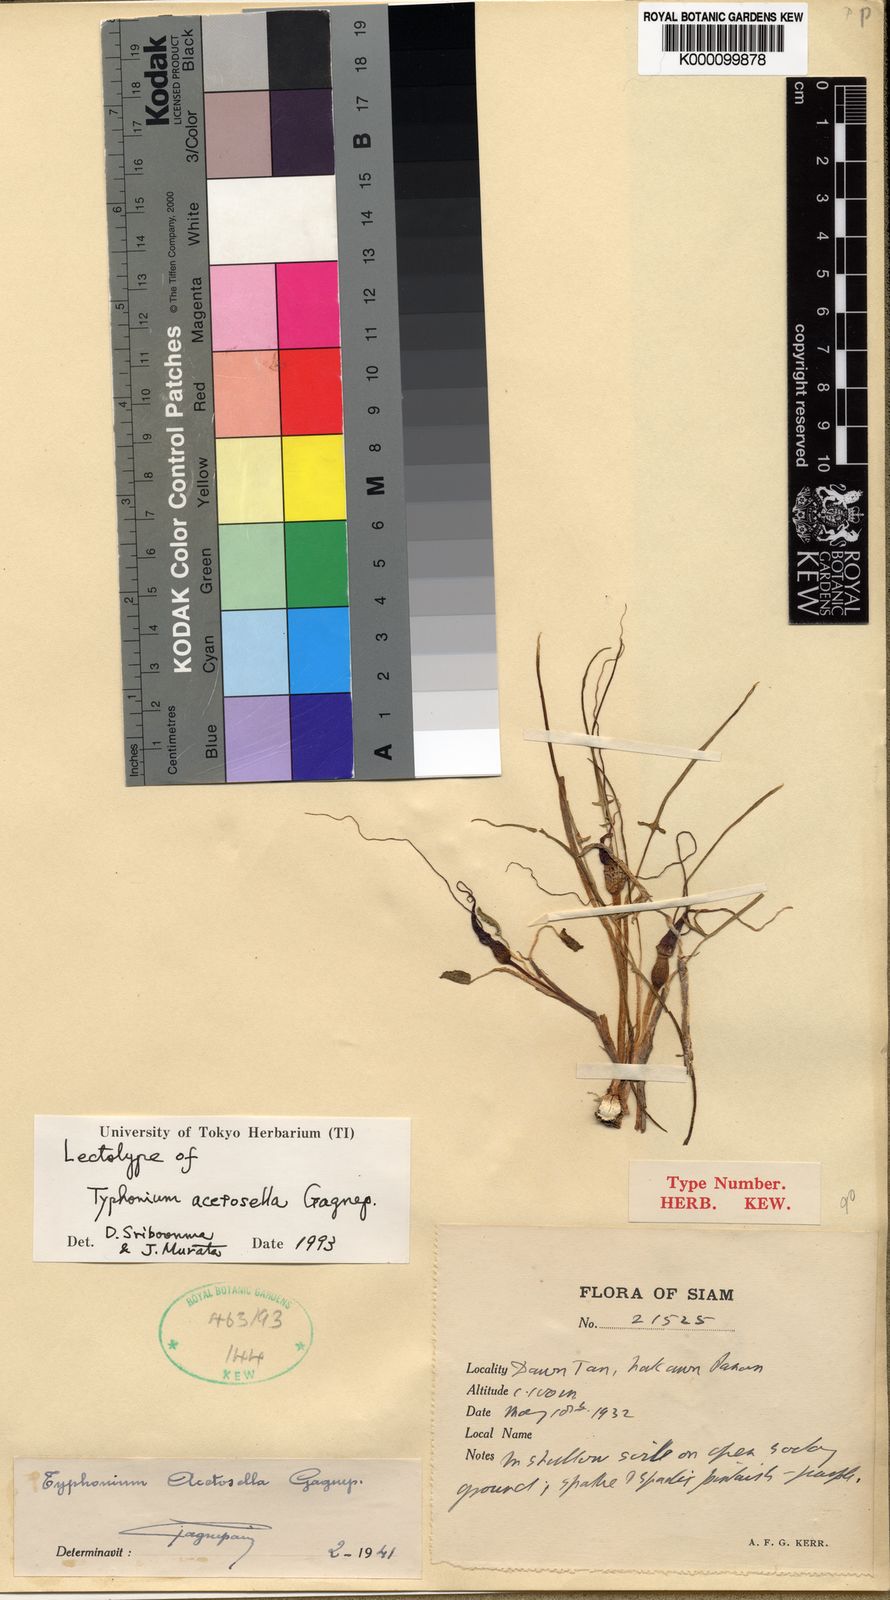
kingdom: Plantae
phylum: Tracheophyta
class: Liliopsida
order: Alismatales
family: Araceae
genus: Typhonium
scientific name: Typhonium acetosella
